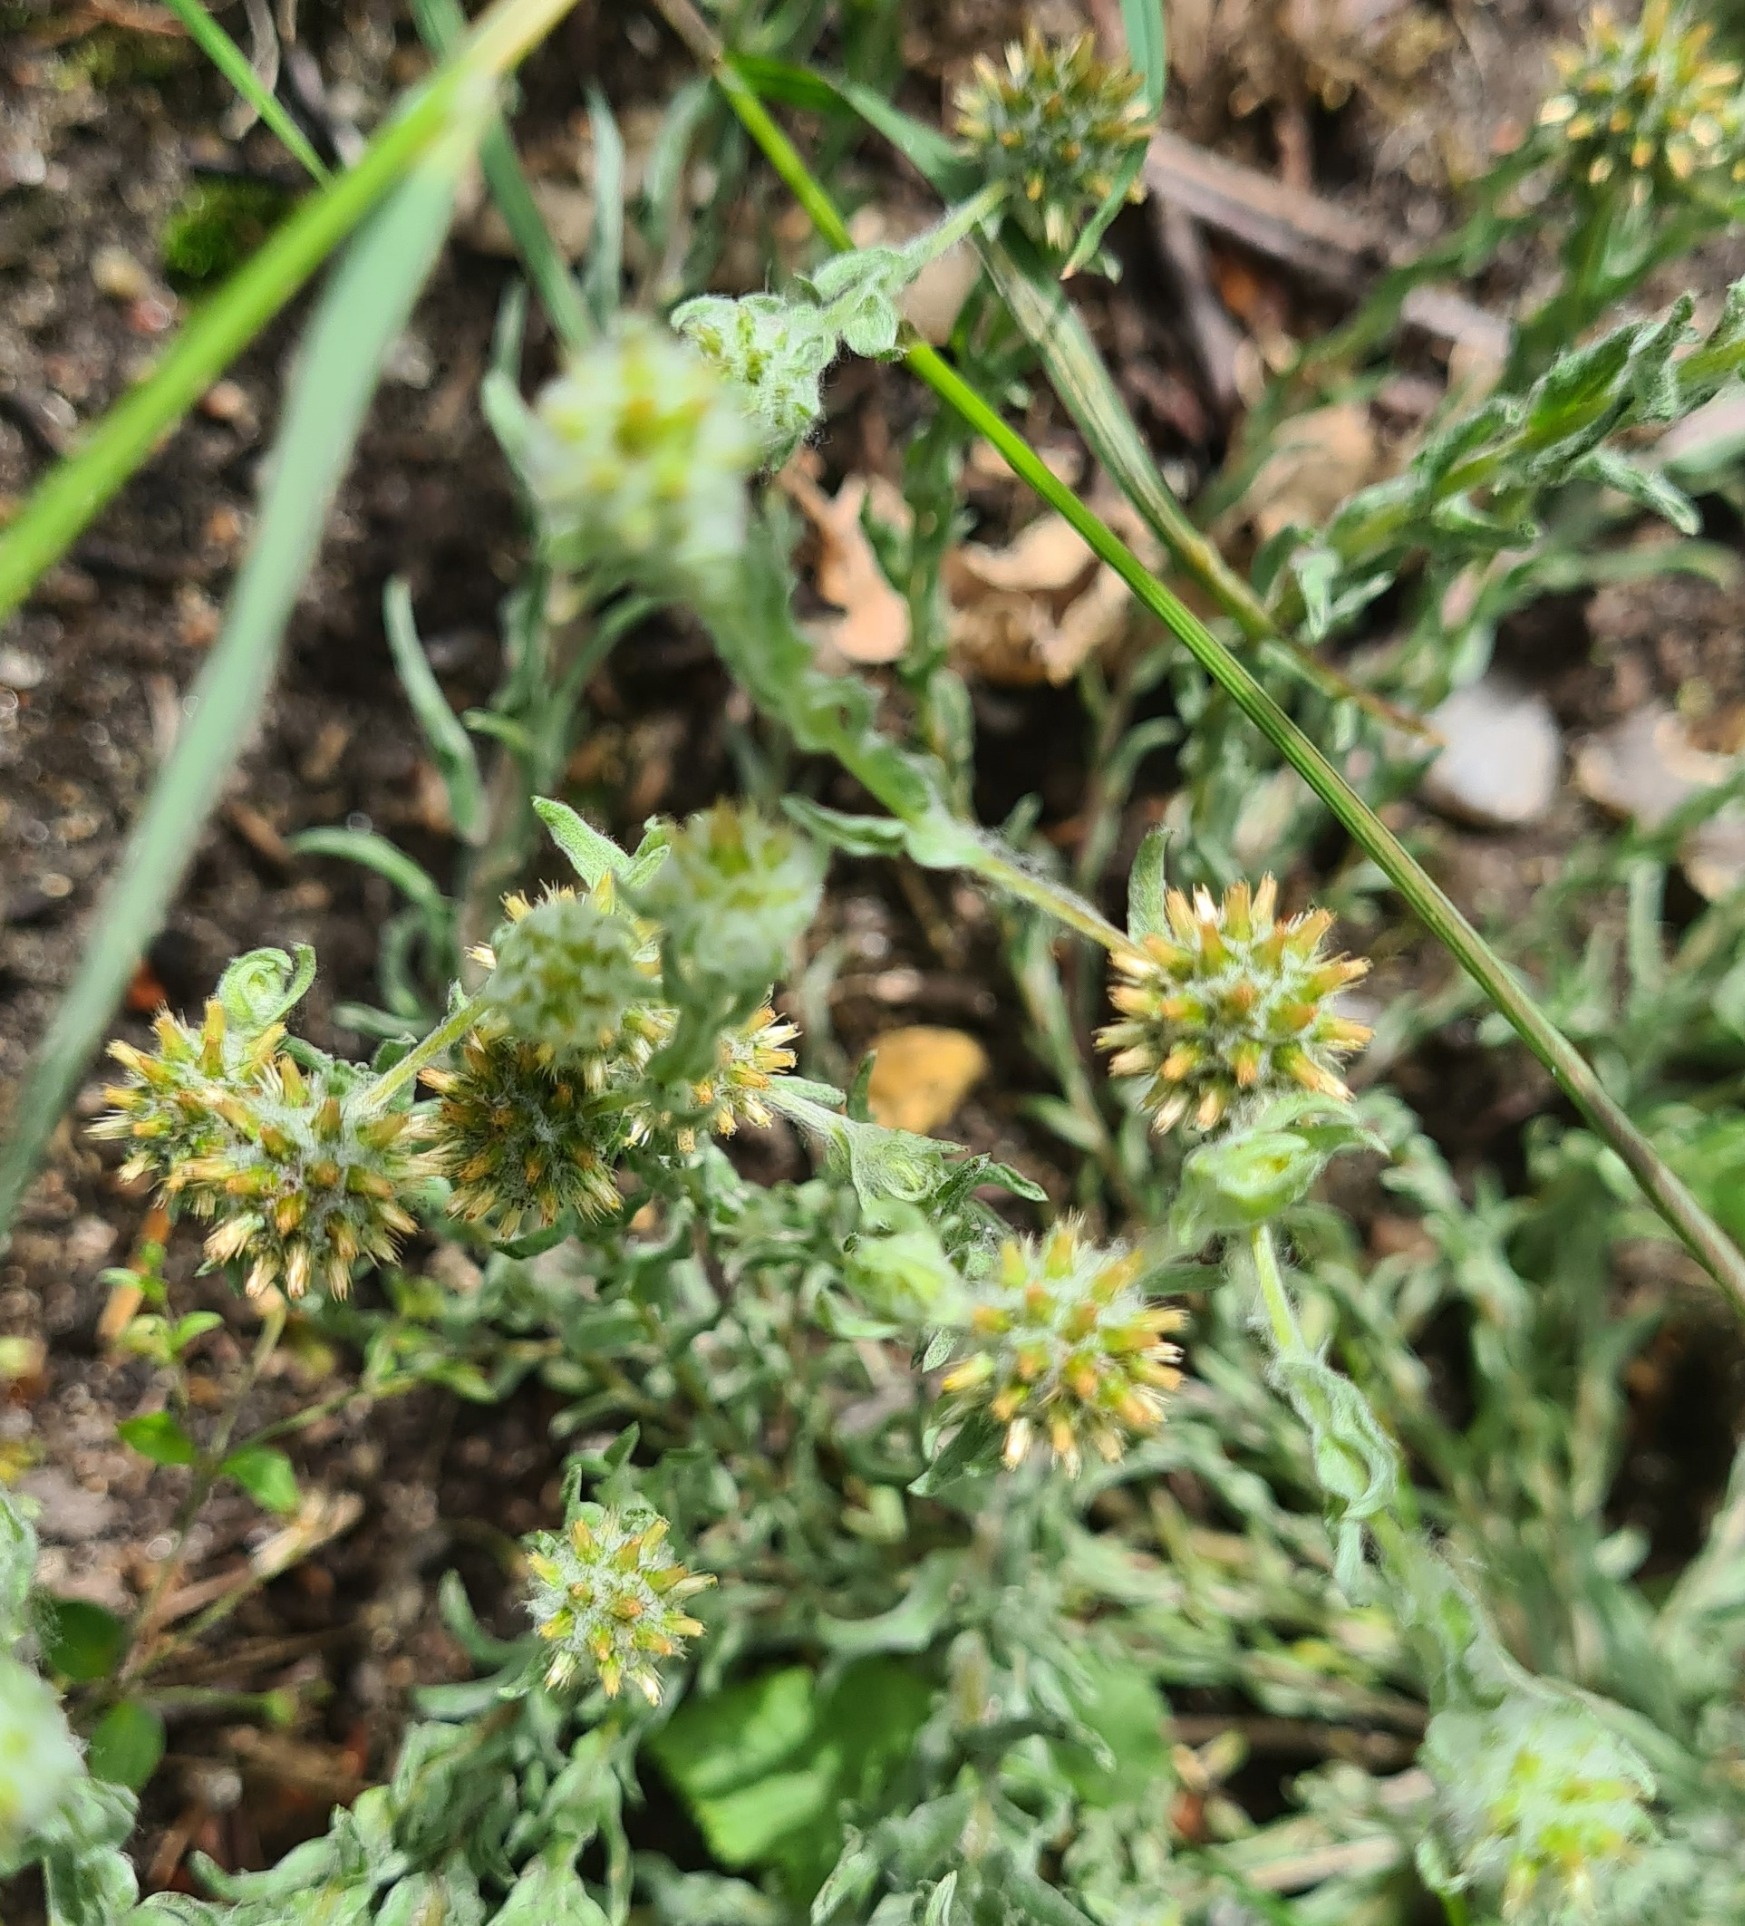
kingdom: Plantae
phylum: Tracheophyta
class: Magnoliopsida
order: Asterales
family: Asteraceae
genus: Filago
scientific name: Filago germanica
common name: Kugle-museurt
